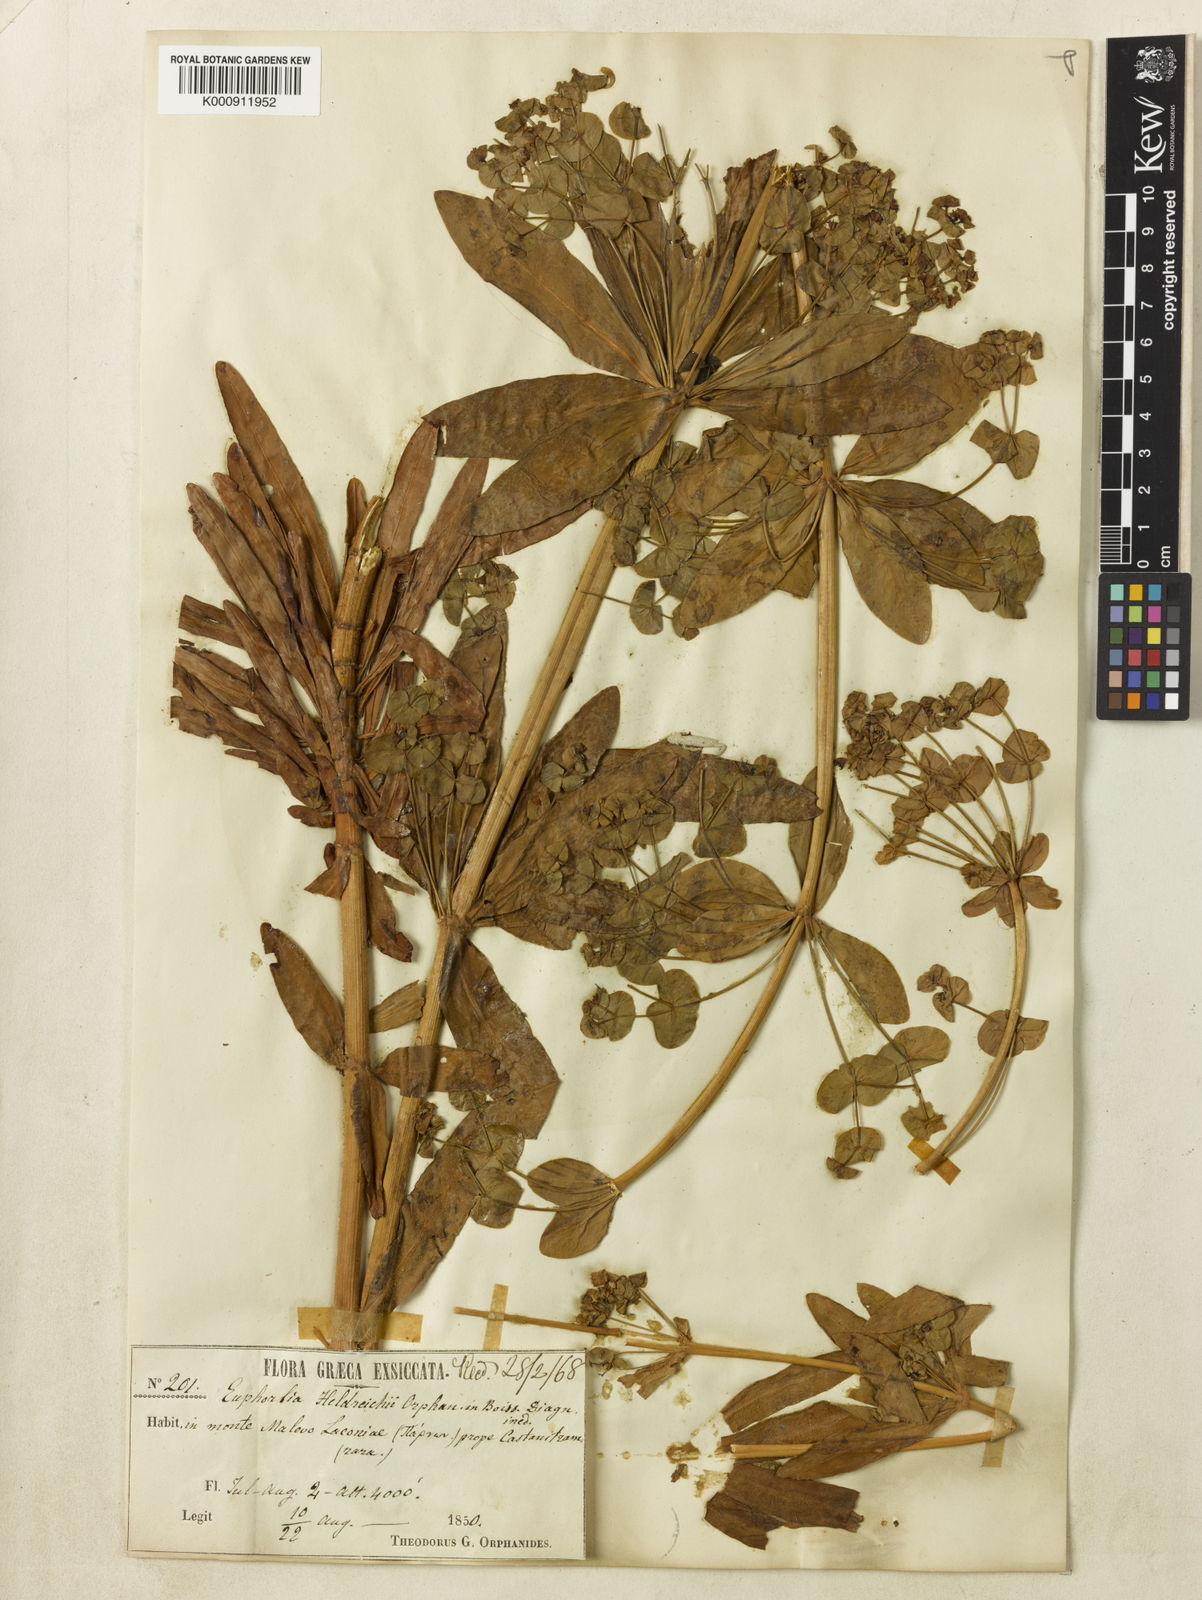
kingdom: Plantae
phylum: Tracheophyta
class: Magnoliopsida
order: Malpighiales
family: Euphorbiaceae
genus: Euphorbia
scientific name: Euphorbia heldreichii
